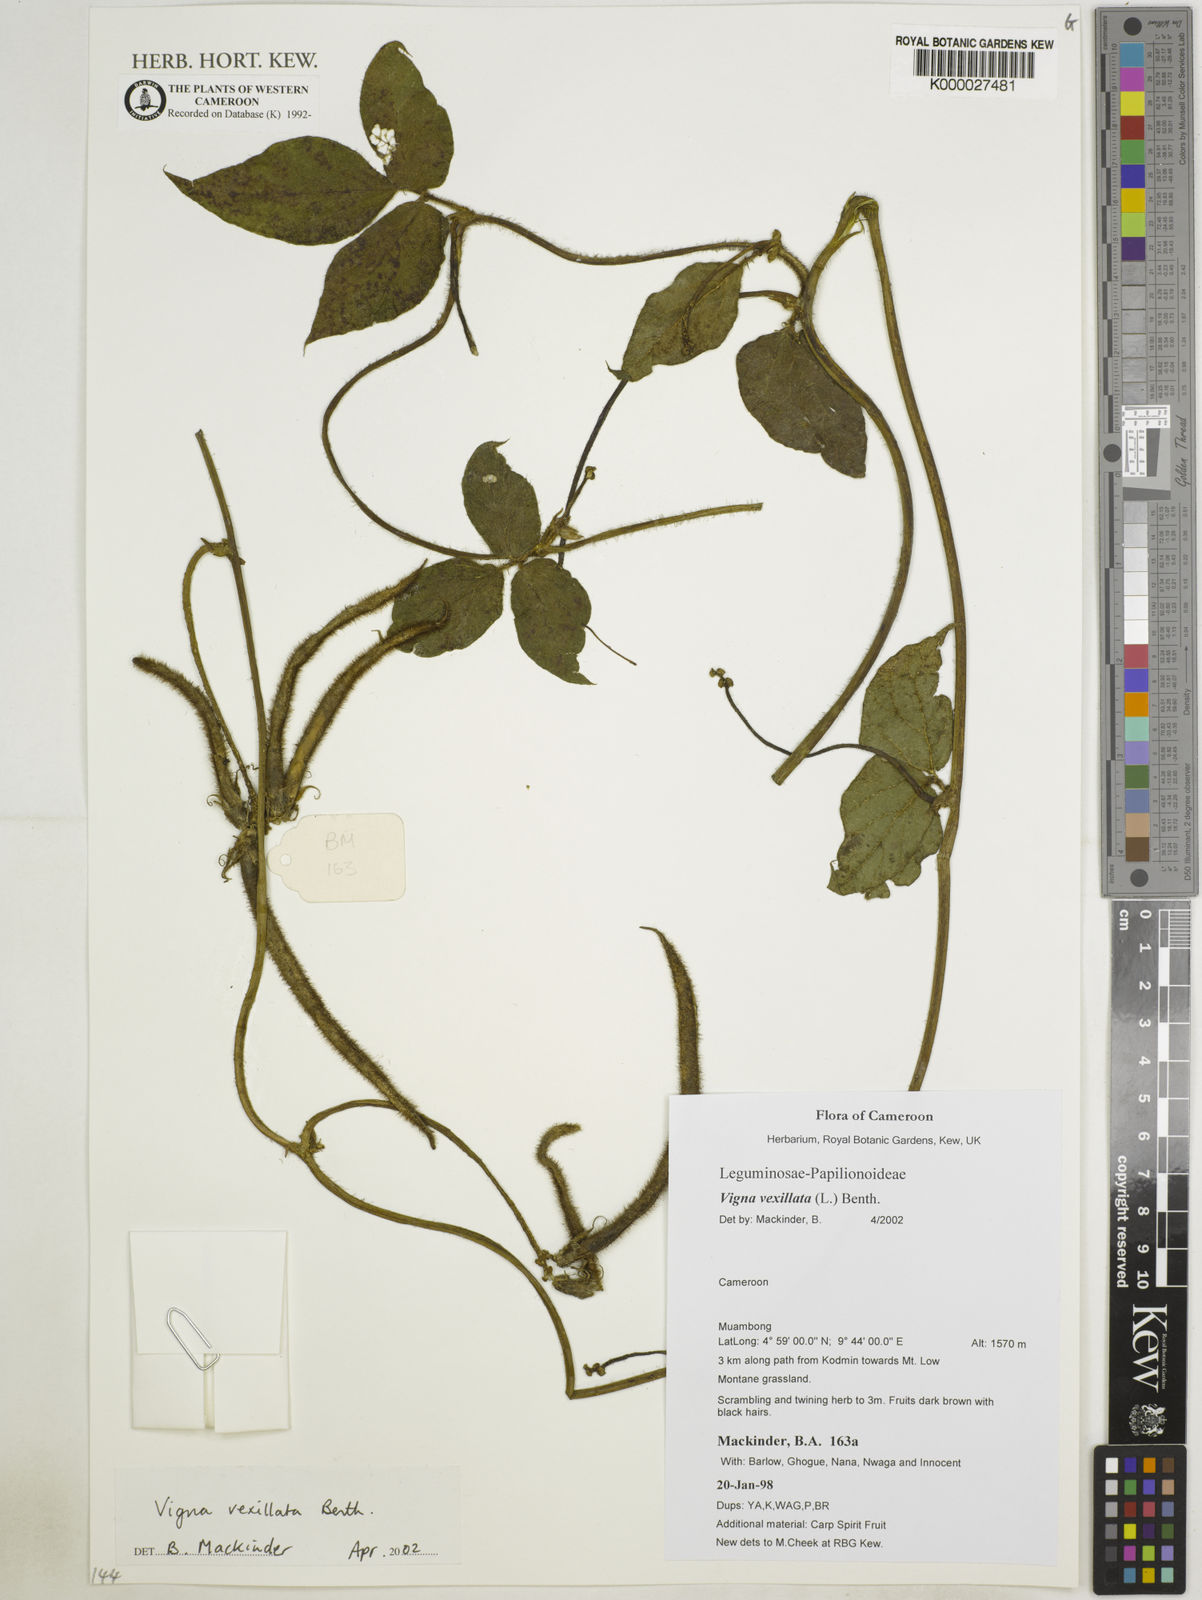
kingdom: Plantae
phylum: Tracheophyta
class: Magnoliopsida
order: Fabales
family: Fabaceae
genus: Vigna
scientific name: Vigna
